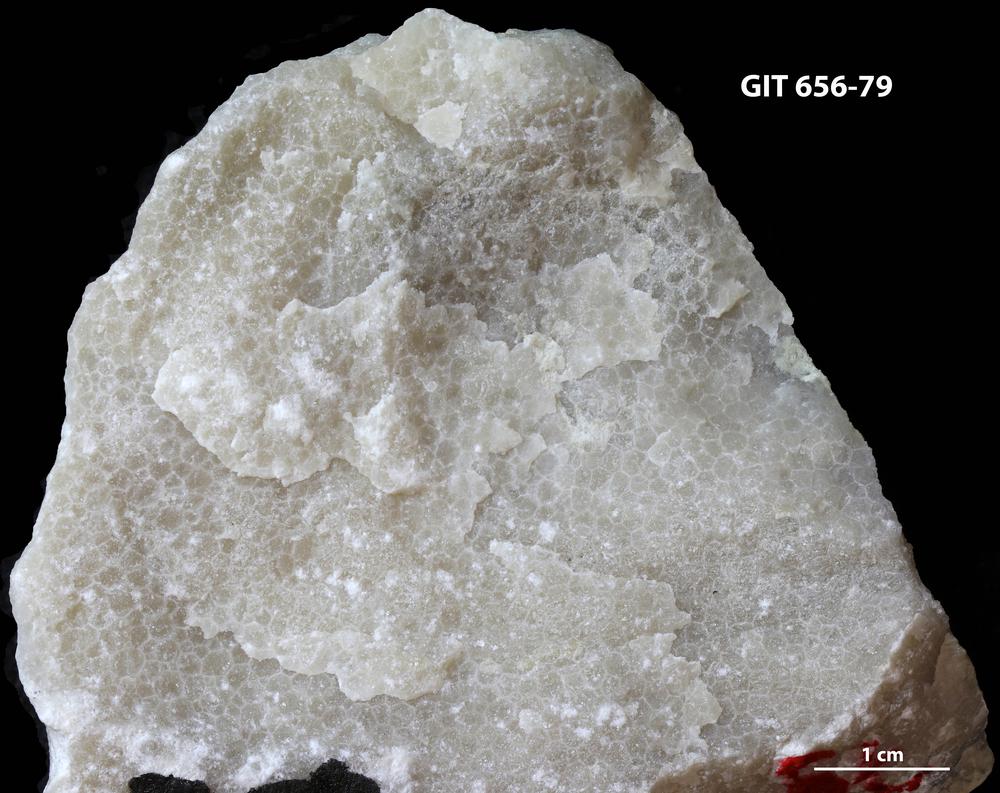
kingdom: Animalia
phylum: Cnidaria
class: Anthozoa
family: Favositidae
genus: Favosites
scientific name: Favosites
